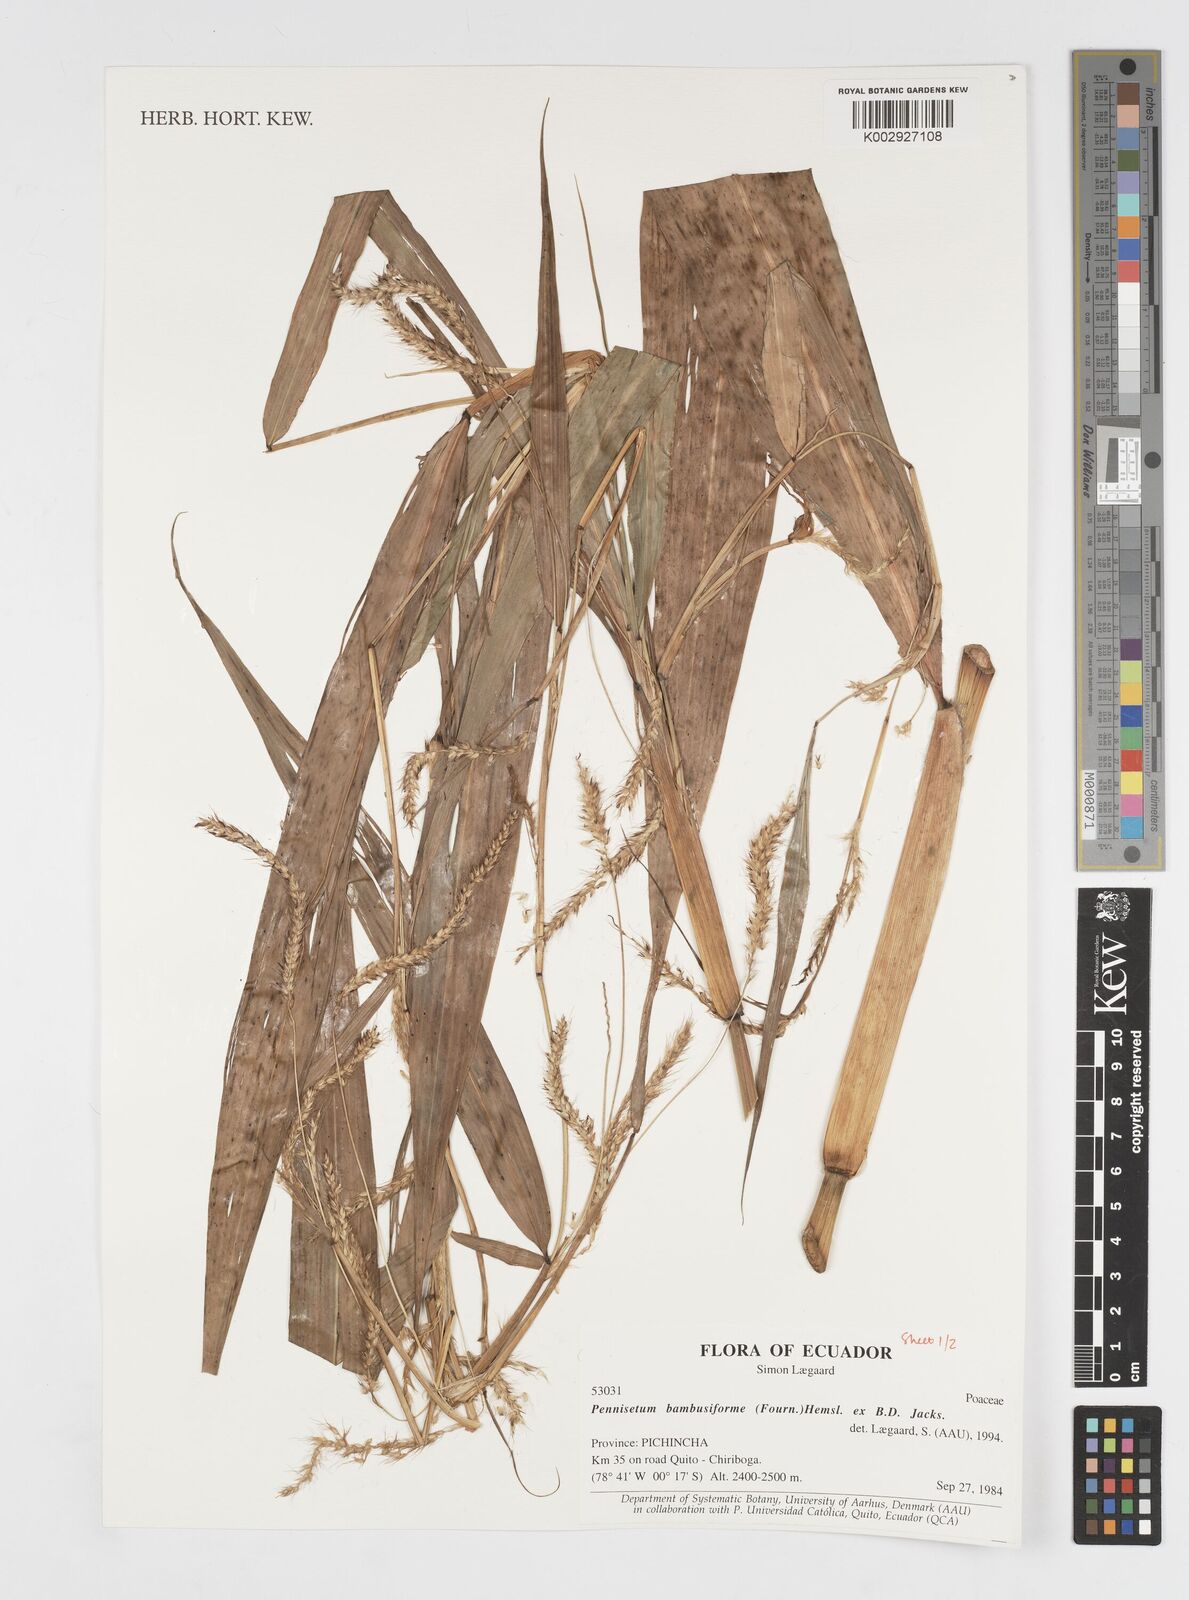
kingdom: Plantae
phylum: Tracheophyta
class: Liliopsida
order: Poales
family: Poaceae
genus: Cenchrus
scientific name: Cenchrus tristachyus
